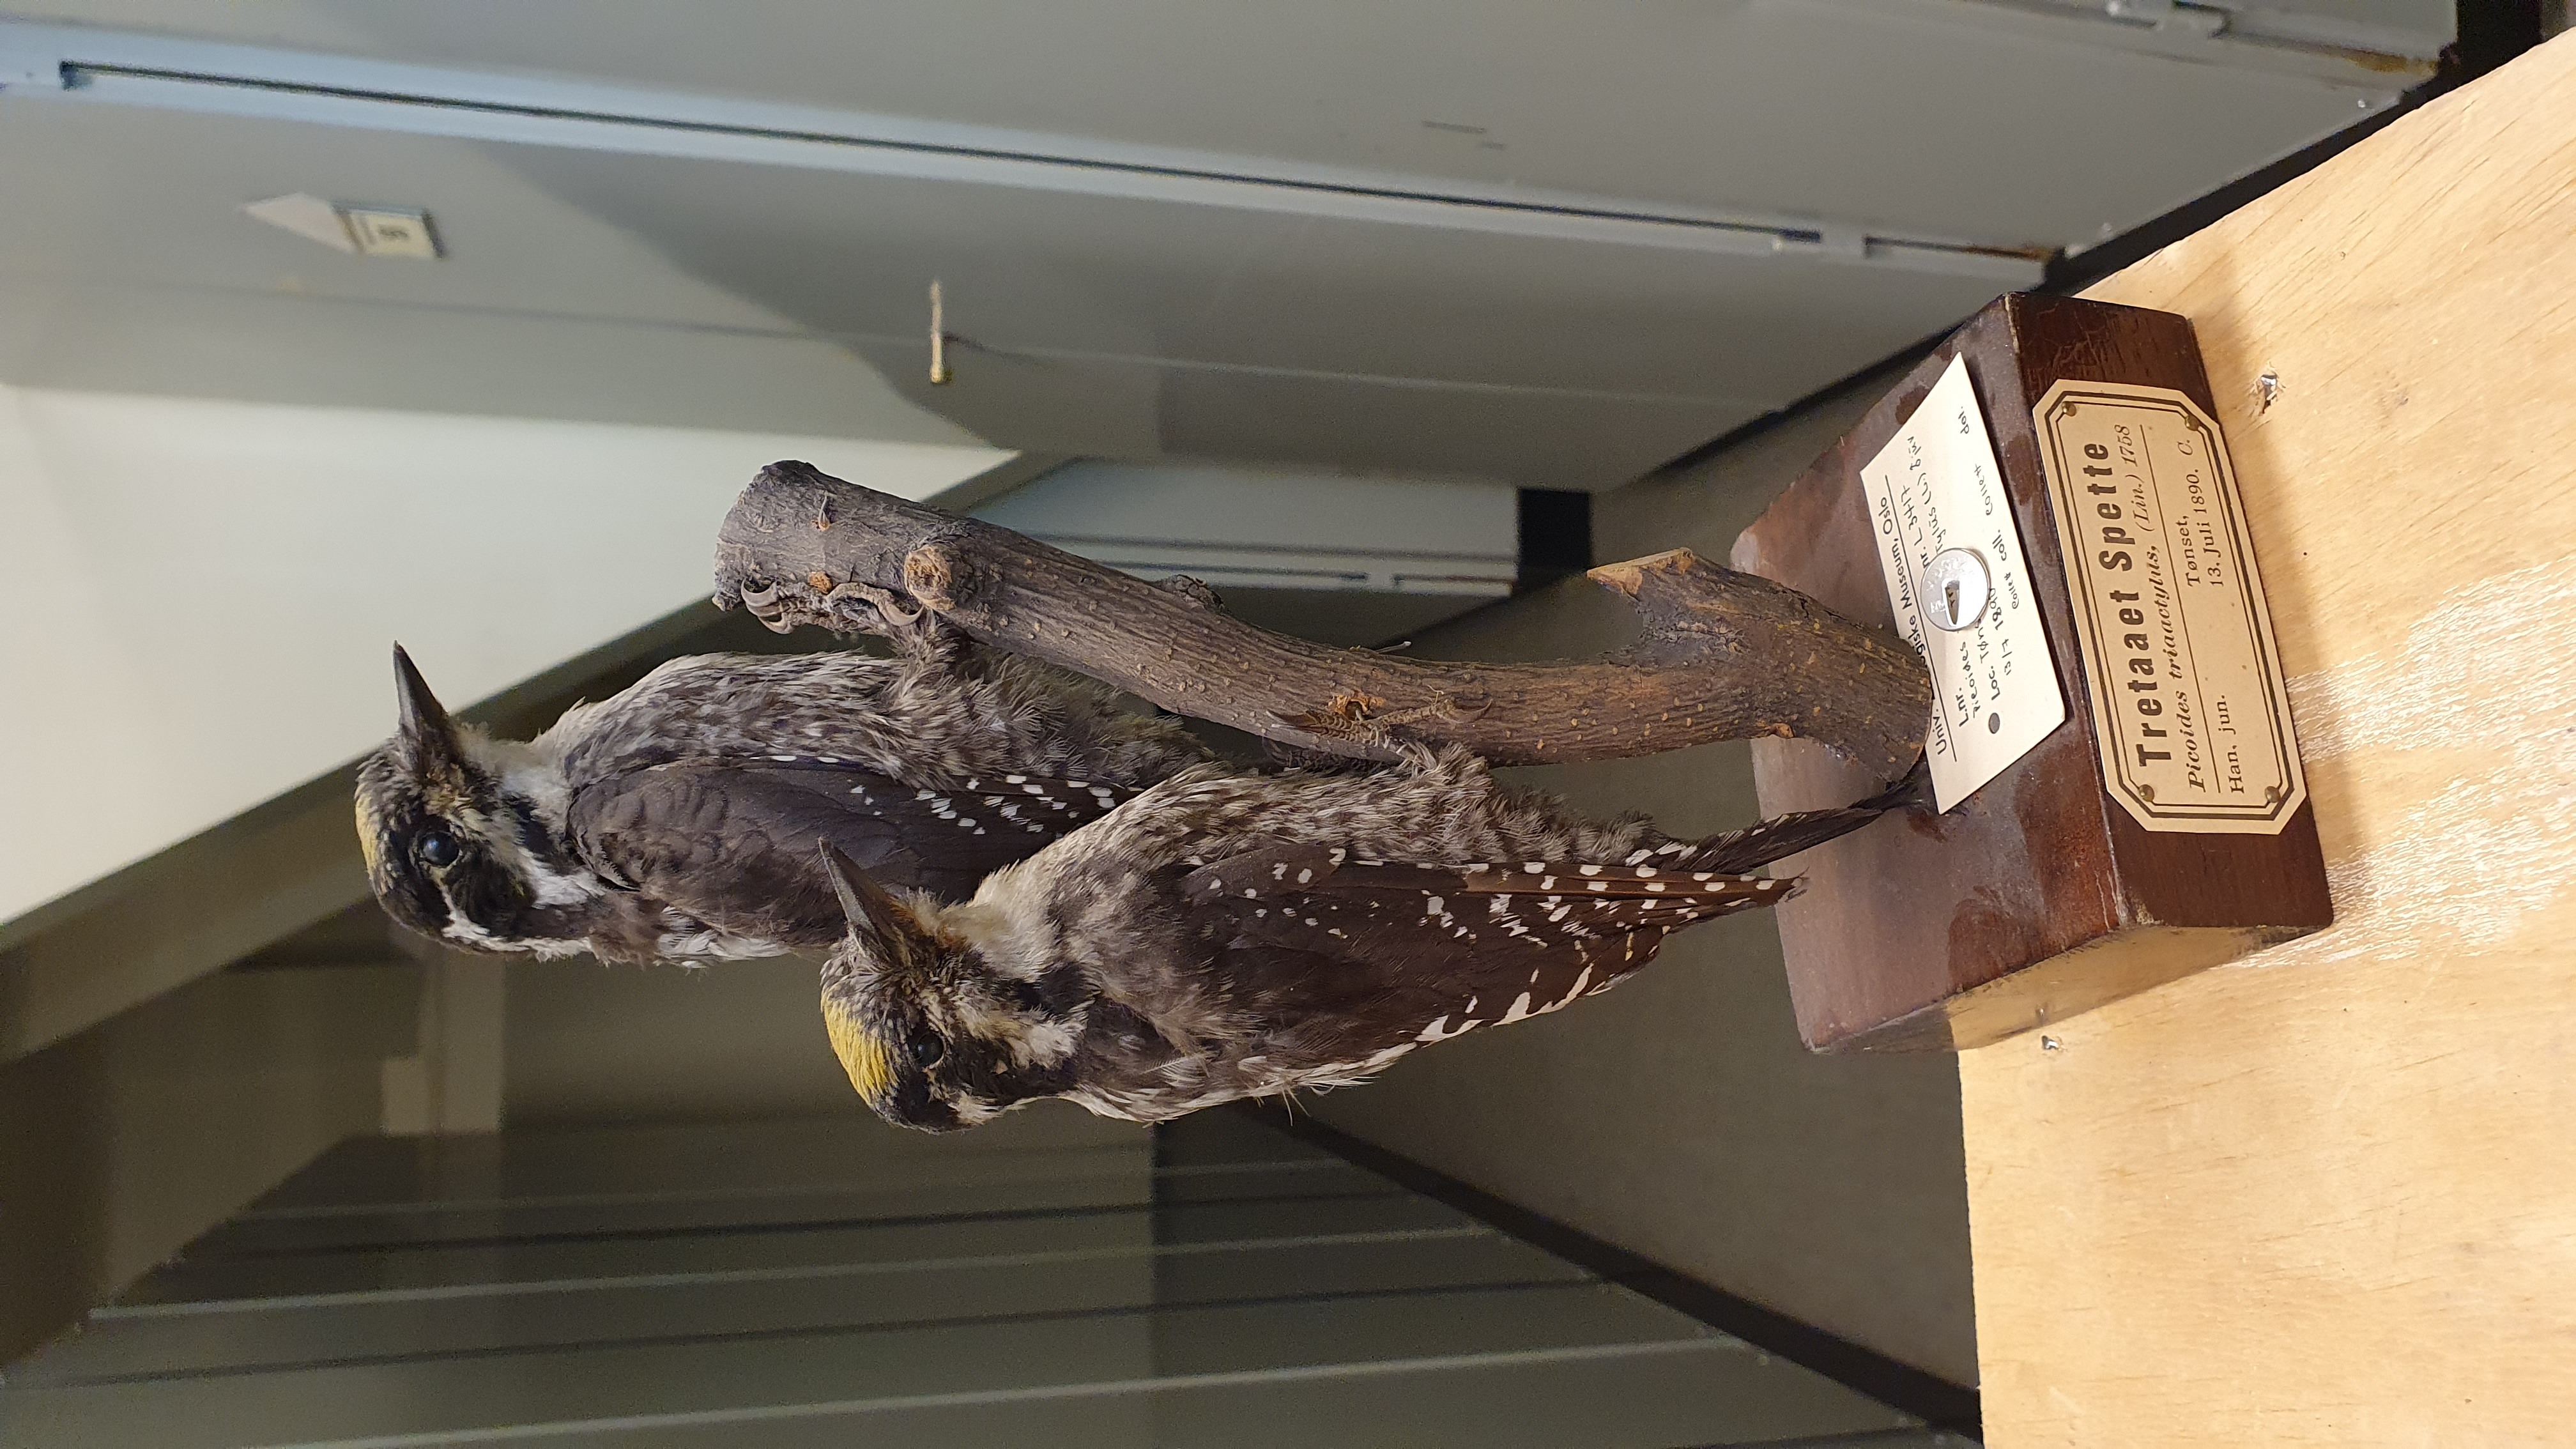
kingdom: Animalia
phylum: Chordata
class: Aves
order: Piciformes
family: Picidae
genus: Picoides
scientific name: Picoides tridactylus
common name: Eurasian three-toed woodpecker
